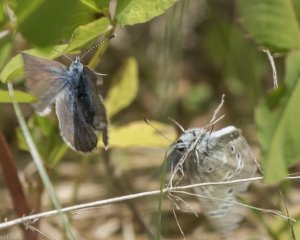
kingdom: Animalia
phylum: Arthropoda
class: Insecta
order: Lepidoptera
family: Lycaenidae
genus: Glaucopsyche
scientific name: Glaucopsyche lygdamus
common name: Silvery Blue
